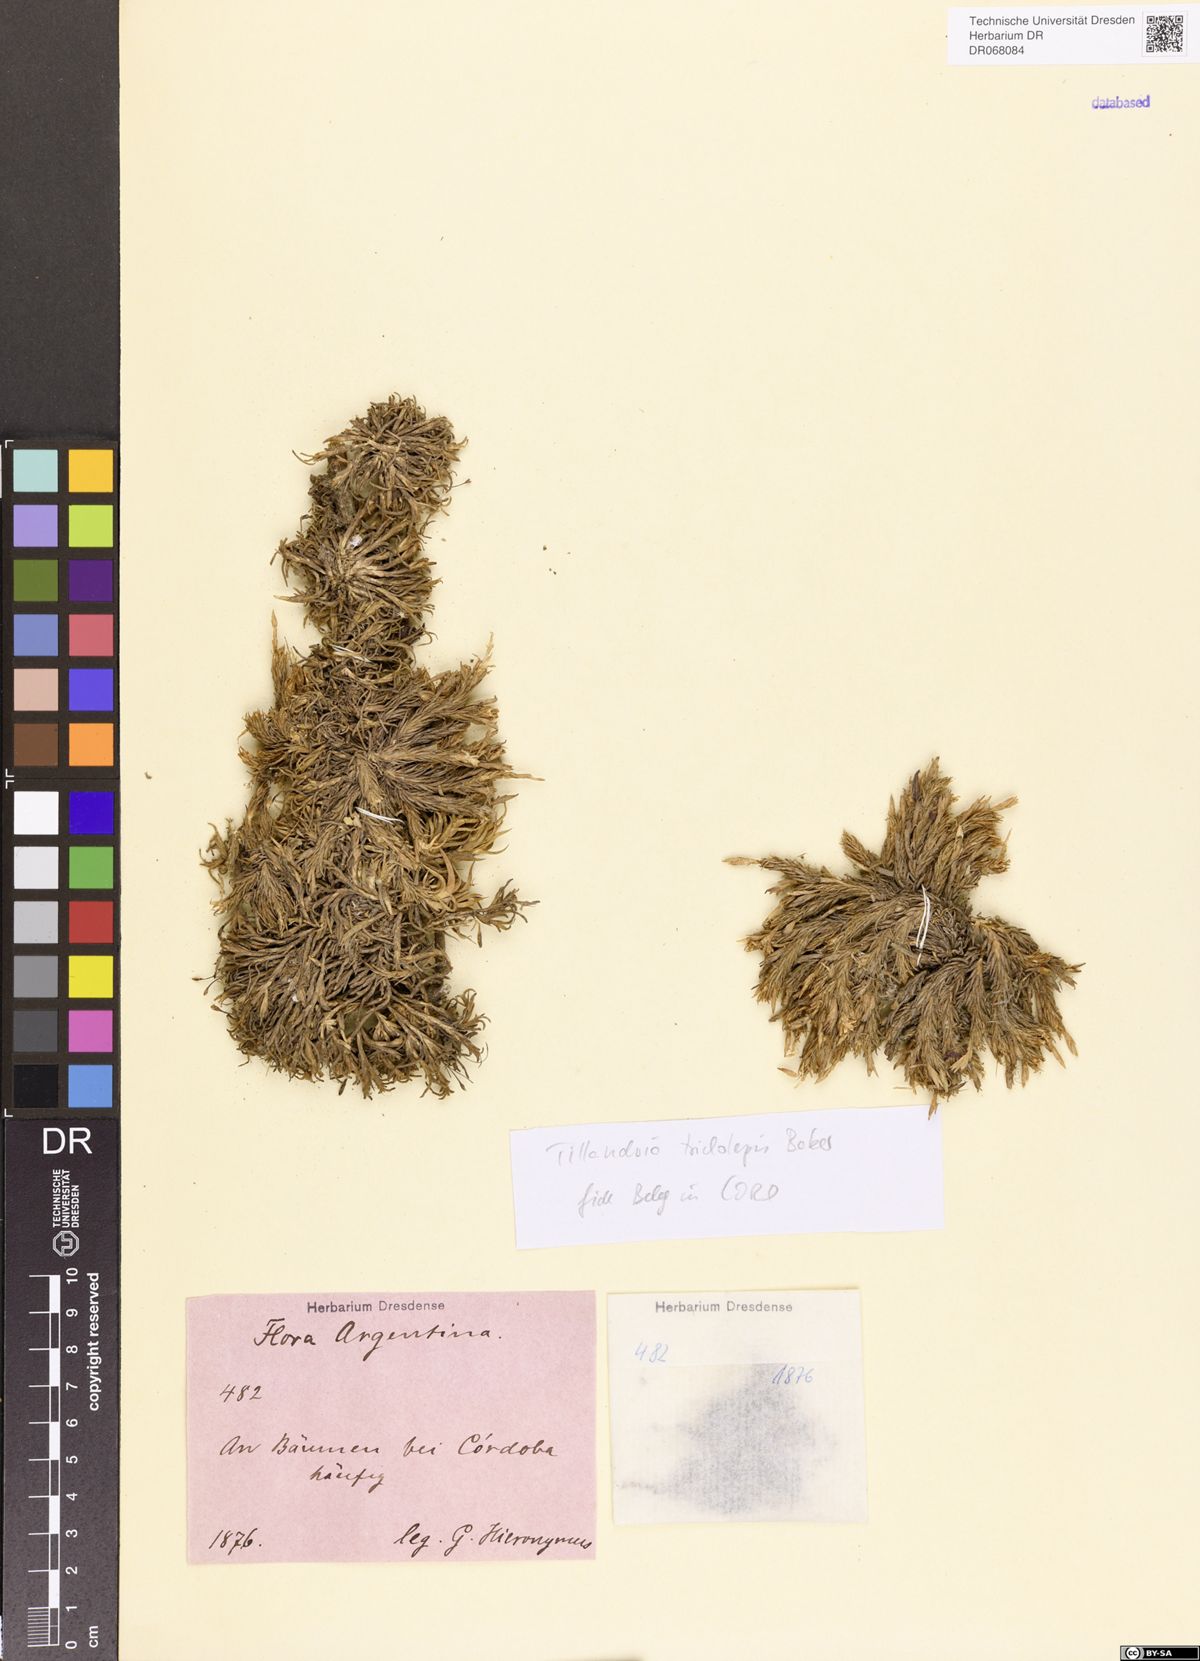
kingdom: Plantae
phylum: Tracheophyta
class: Liliopsida
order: Poales
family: Bromeliaceae
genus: Tillandsia
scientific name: Tillandsia tricholepis
